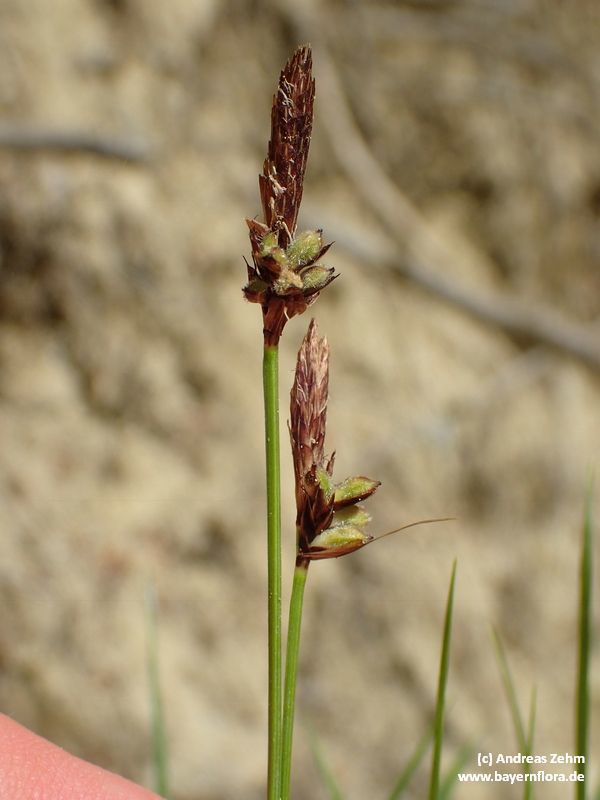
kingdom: Plantae
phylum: Tracheophyta
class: Liliopsida
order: Poales
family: Cyperaceae
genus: Carex
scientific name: Carex pilulifera
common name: Pill sedge
